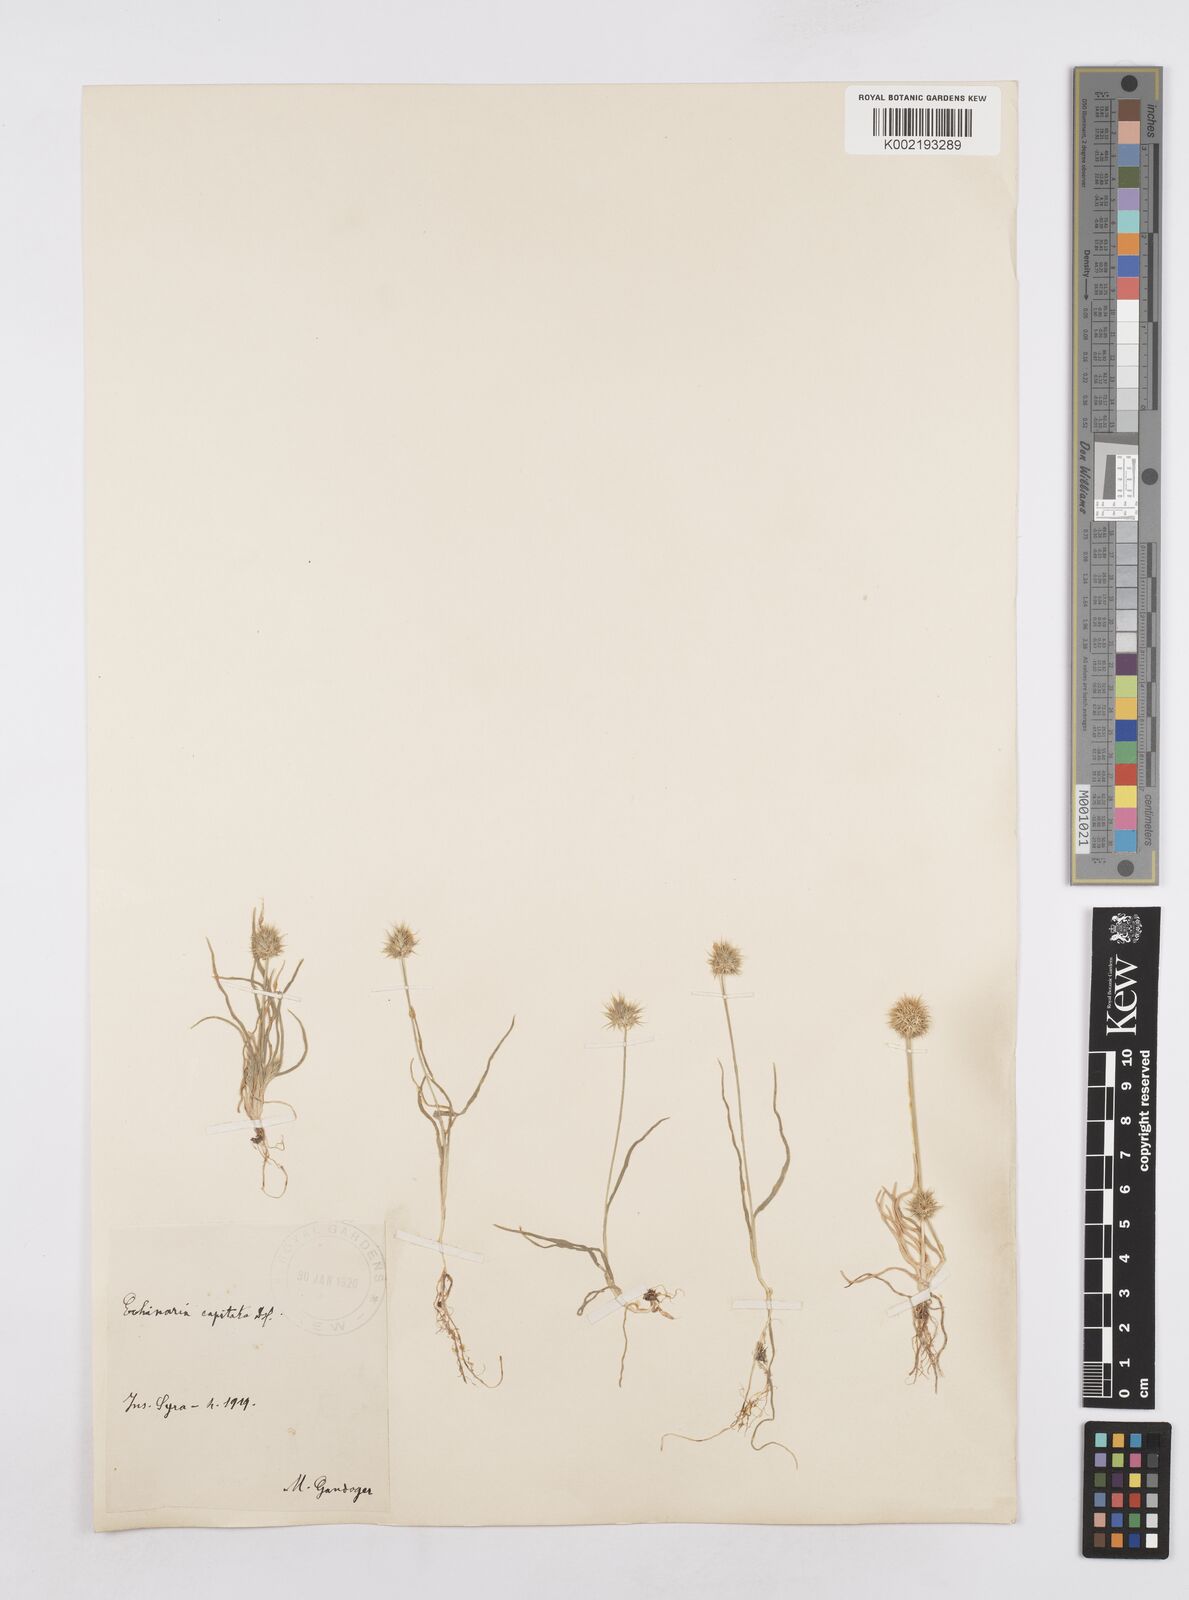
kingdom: Plantae
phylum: Tracheophyta
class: Liliopsida
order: Poales
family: Poaceae
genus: Echinaria
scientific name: Echinaria capitata
